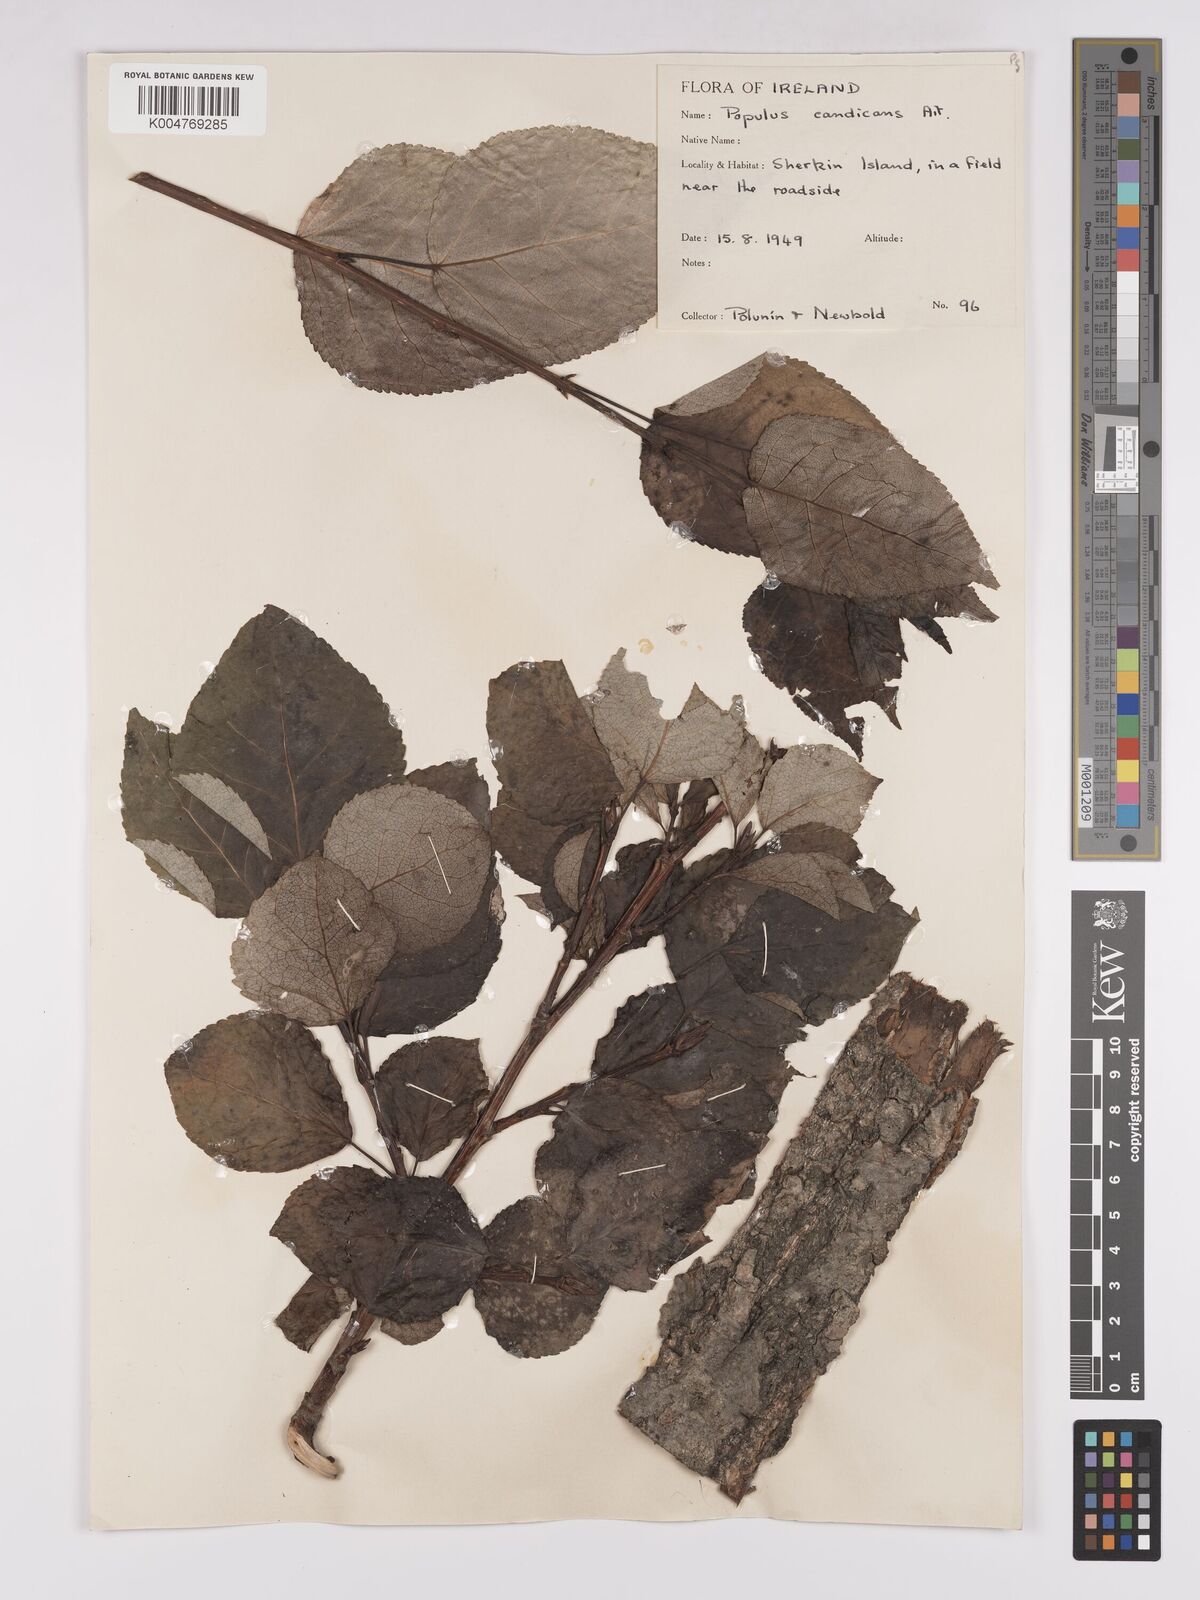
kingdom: Plantae
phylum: Tracheophyta
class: Magnoliopsida
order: Malpighiales
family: Salicaceae
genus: Populus
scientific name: Populus balsamifera
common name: Balsam poplar
